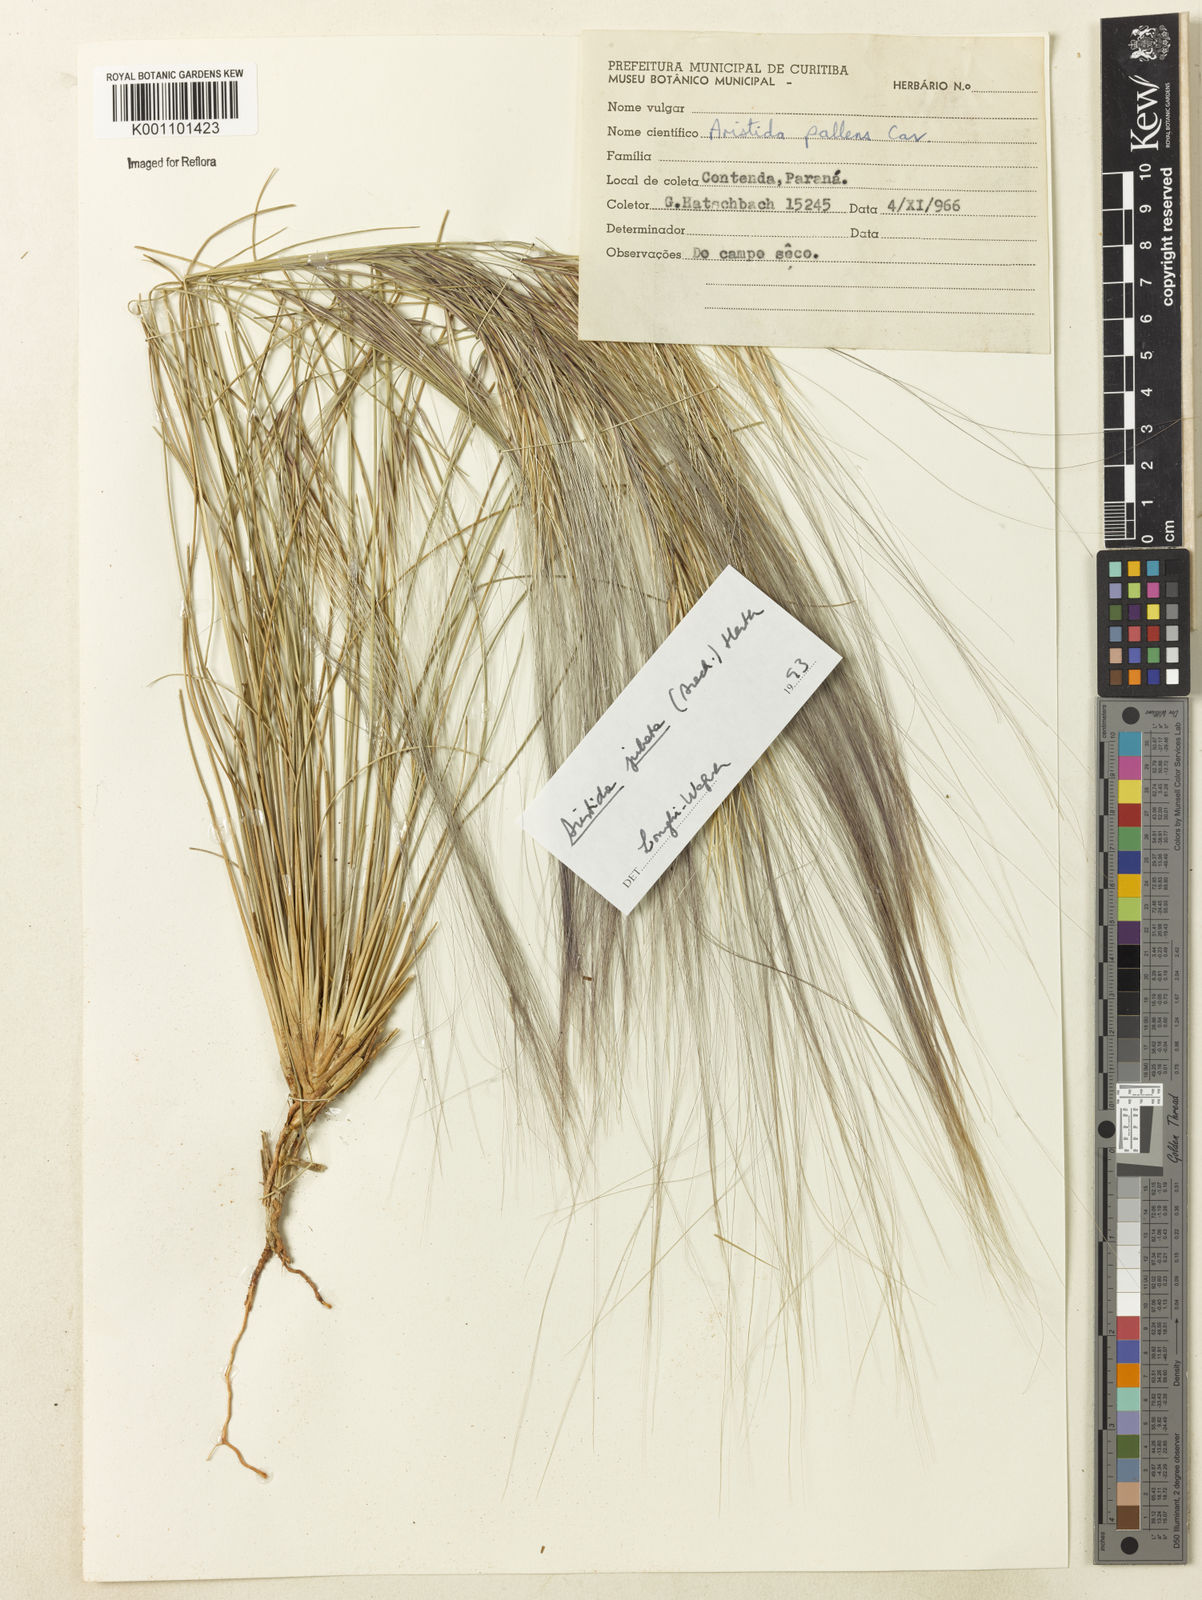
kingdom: Plantae
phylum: Tracheophyta
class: Liliopsida
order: Poales
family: Poaceae
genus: Aristida
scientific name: Aristida jubata
